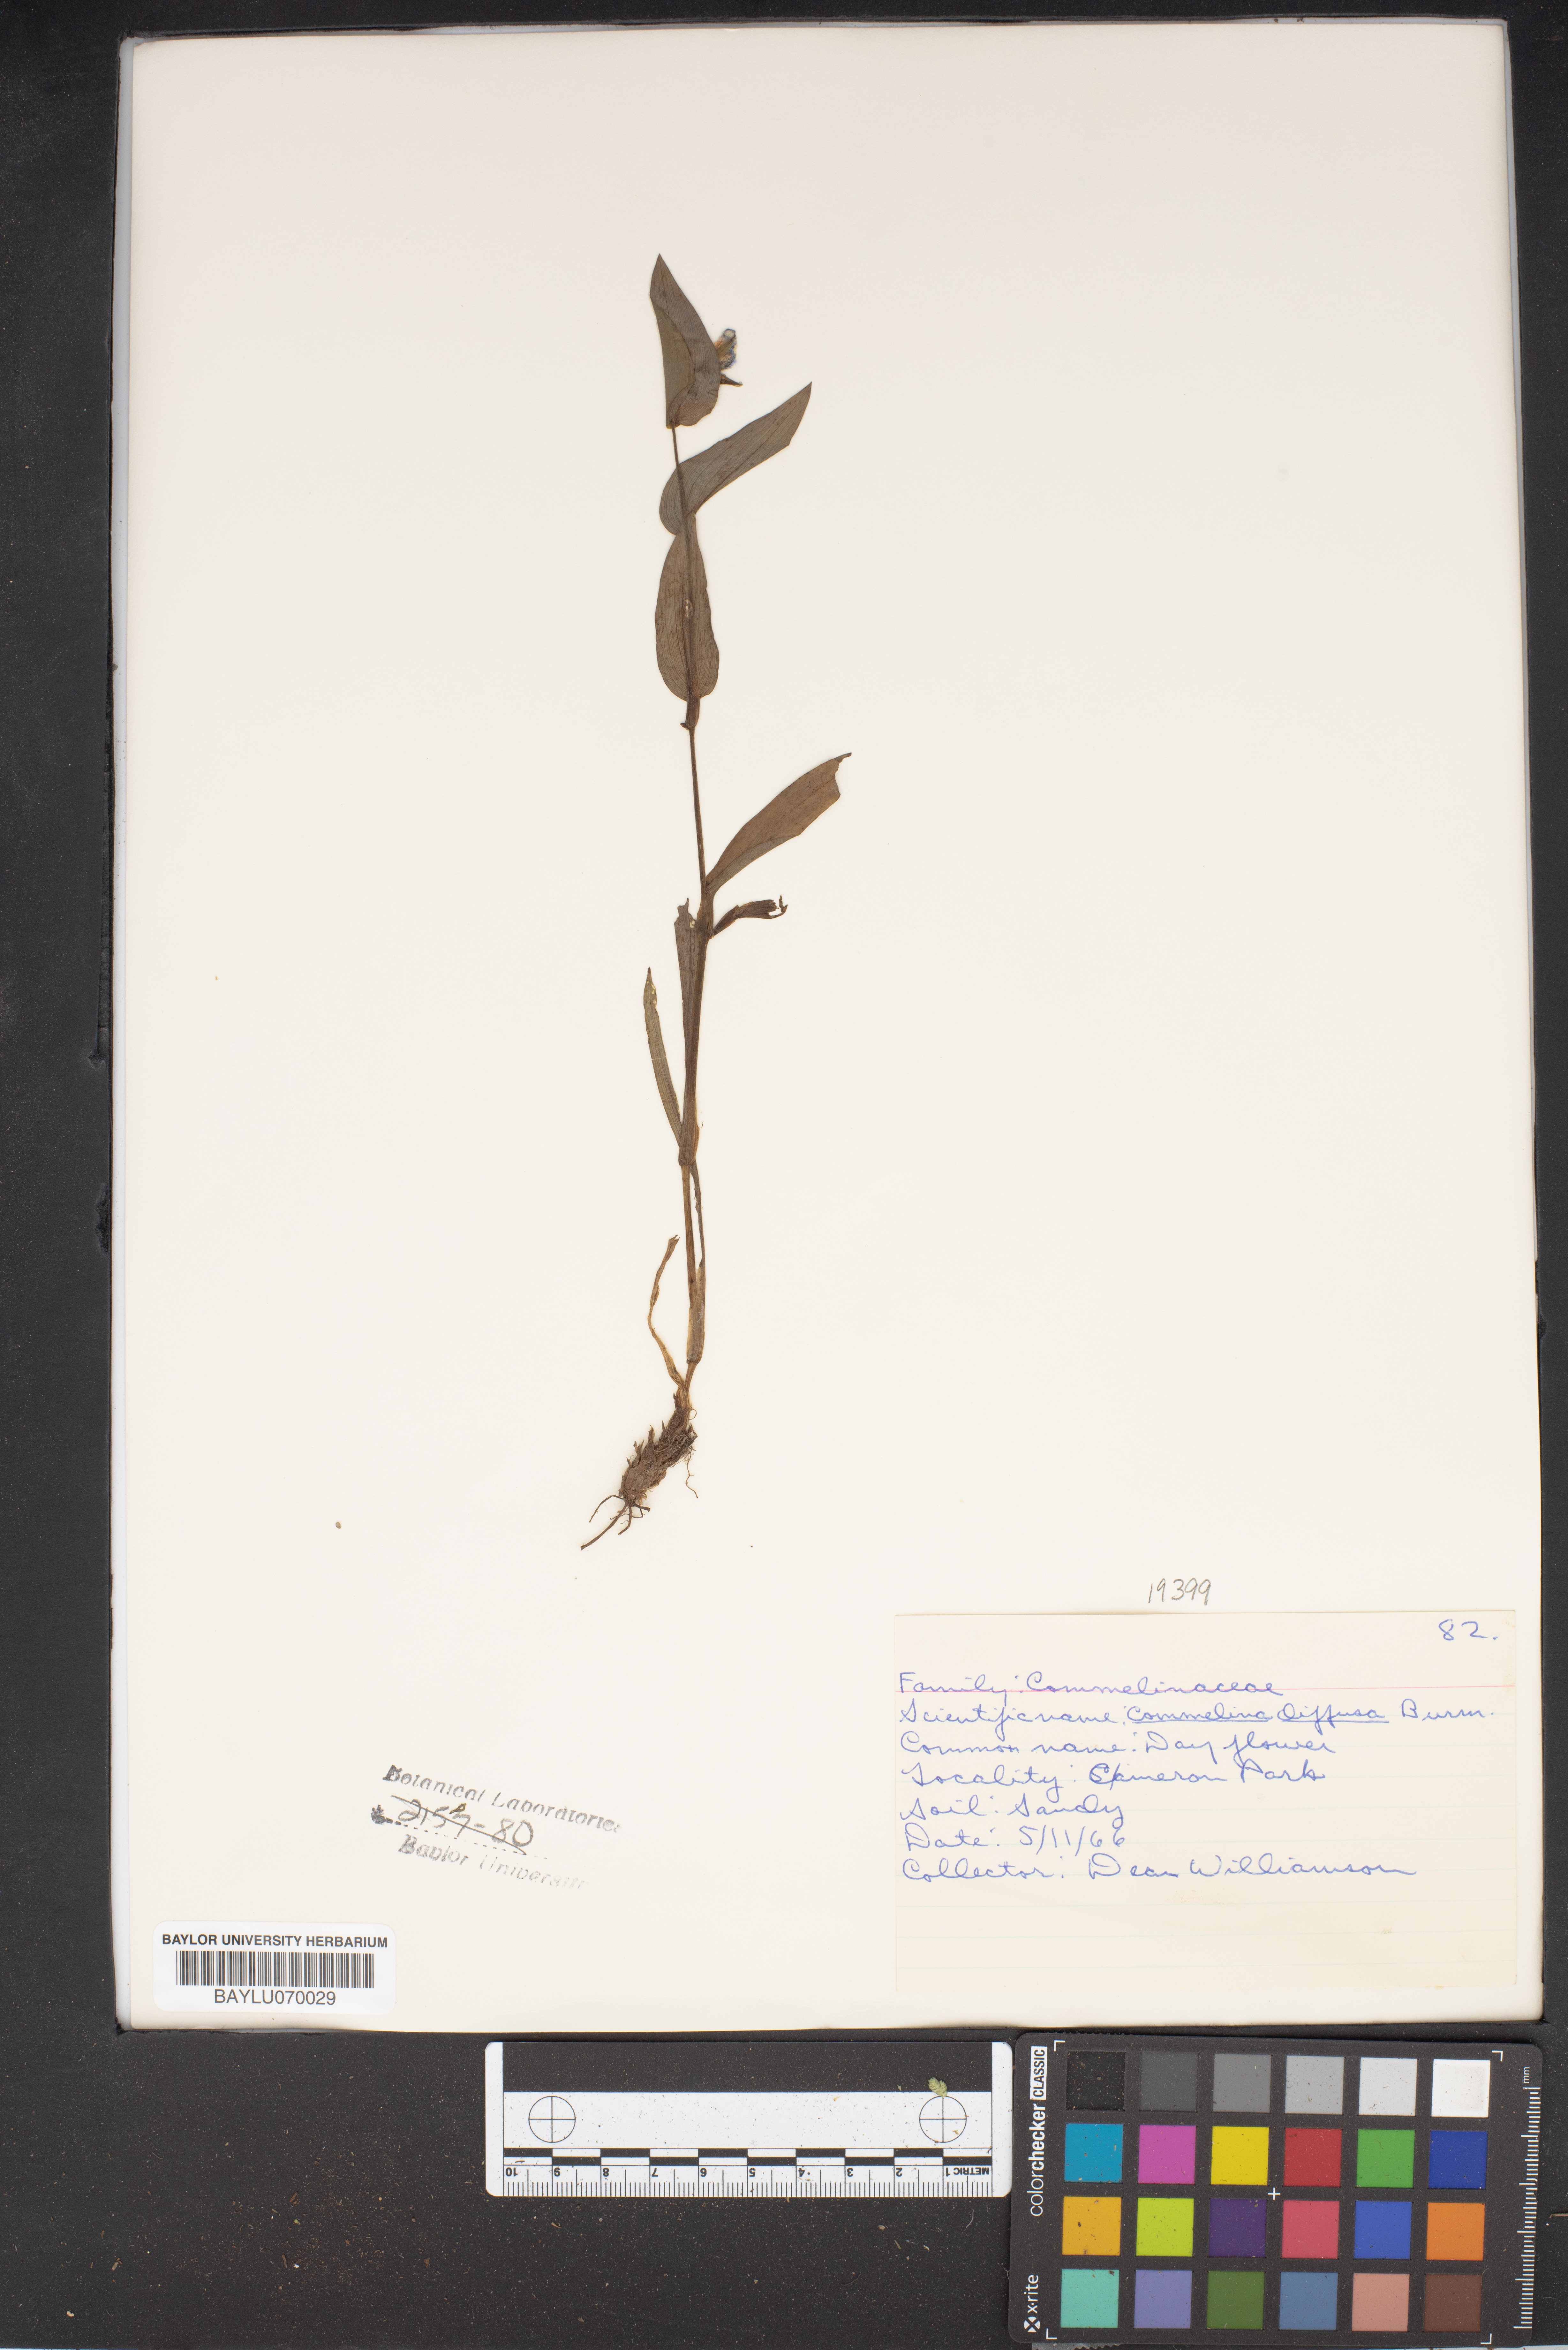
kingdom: Plantae
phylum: Tracheophyta
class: Liliopsida
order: Commelinales
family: Commelinaceae
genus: Commelina
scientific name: Commelina diffusa
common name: Climbing dayflower
